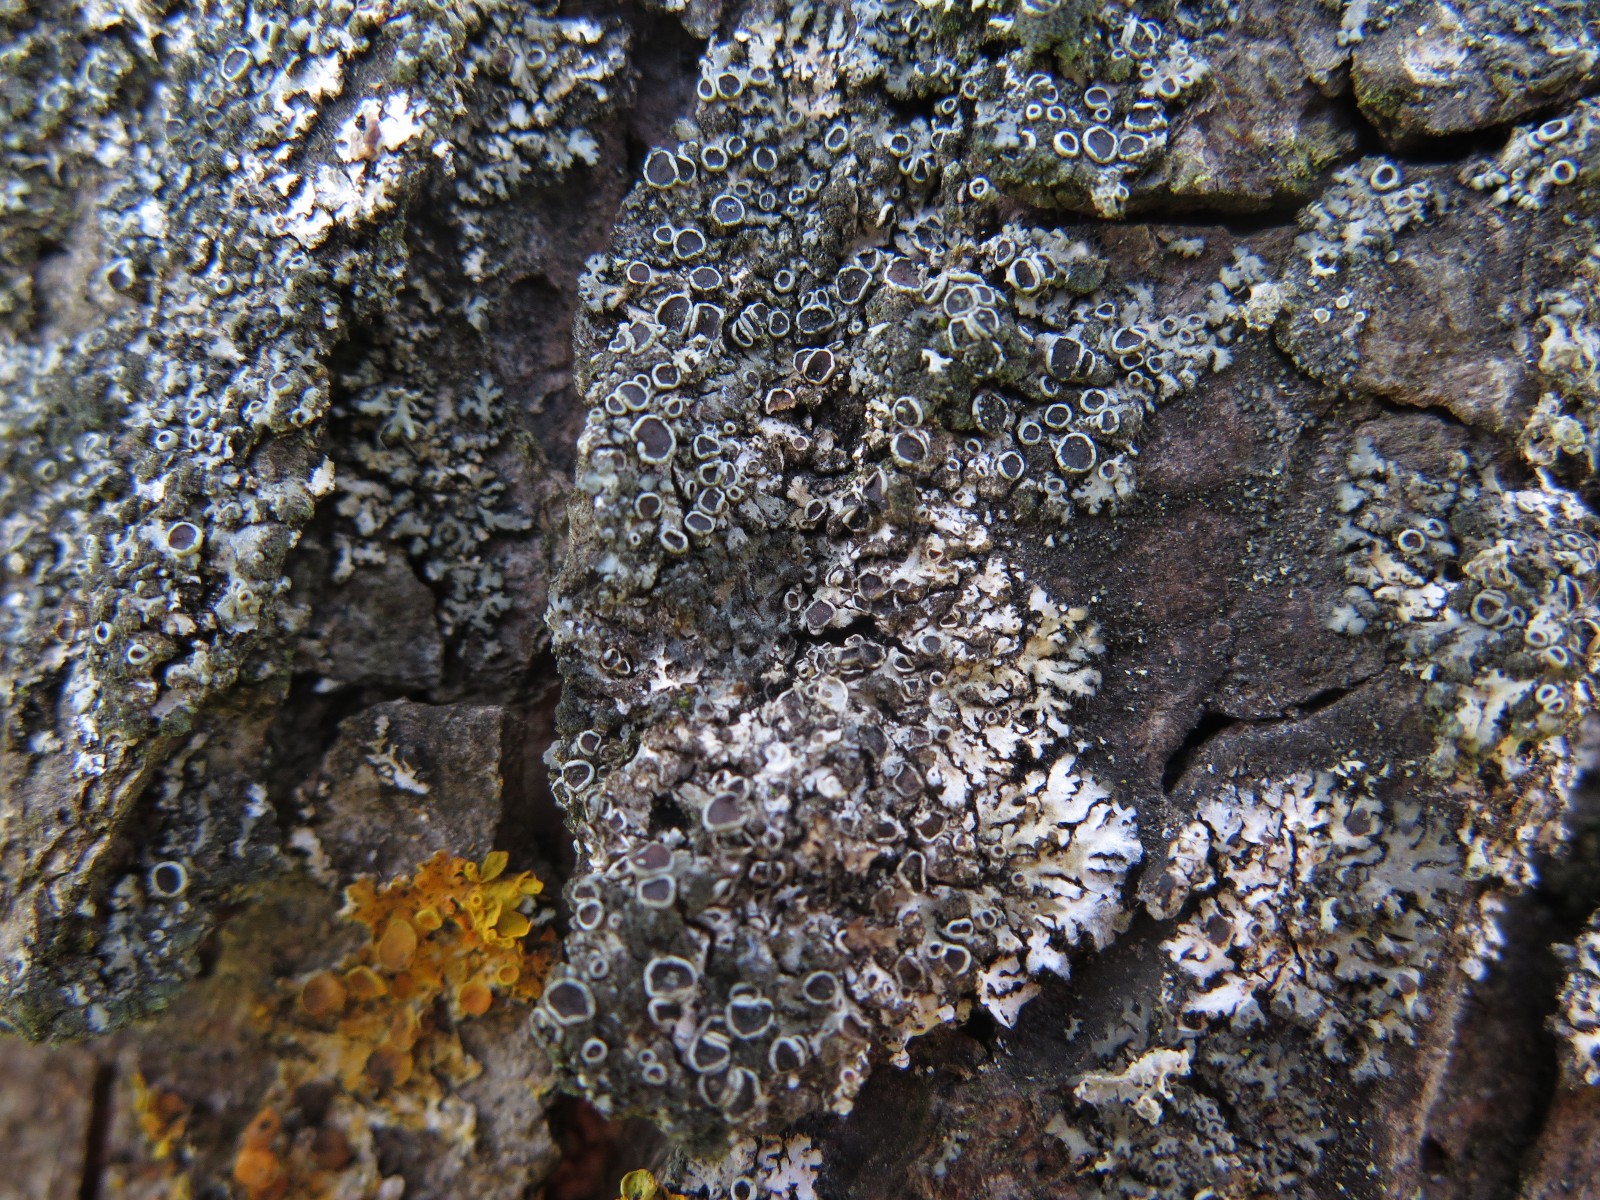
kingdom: Fungi
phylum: Ascomycota
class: Lecanoromycetes
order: Caliciales
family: Physciaceae
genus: Phaeophyscia
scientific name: Phaeophyscia orbicularis
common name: grågrøn rosetlav
